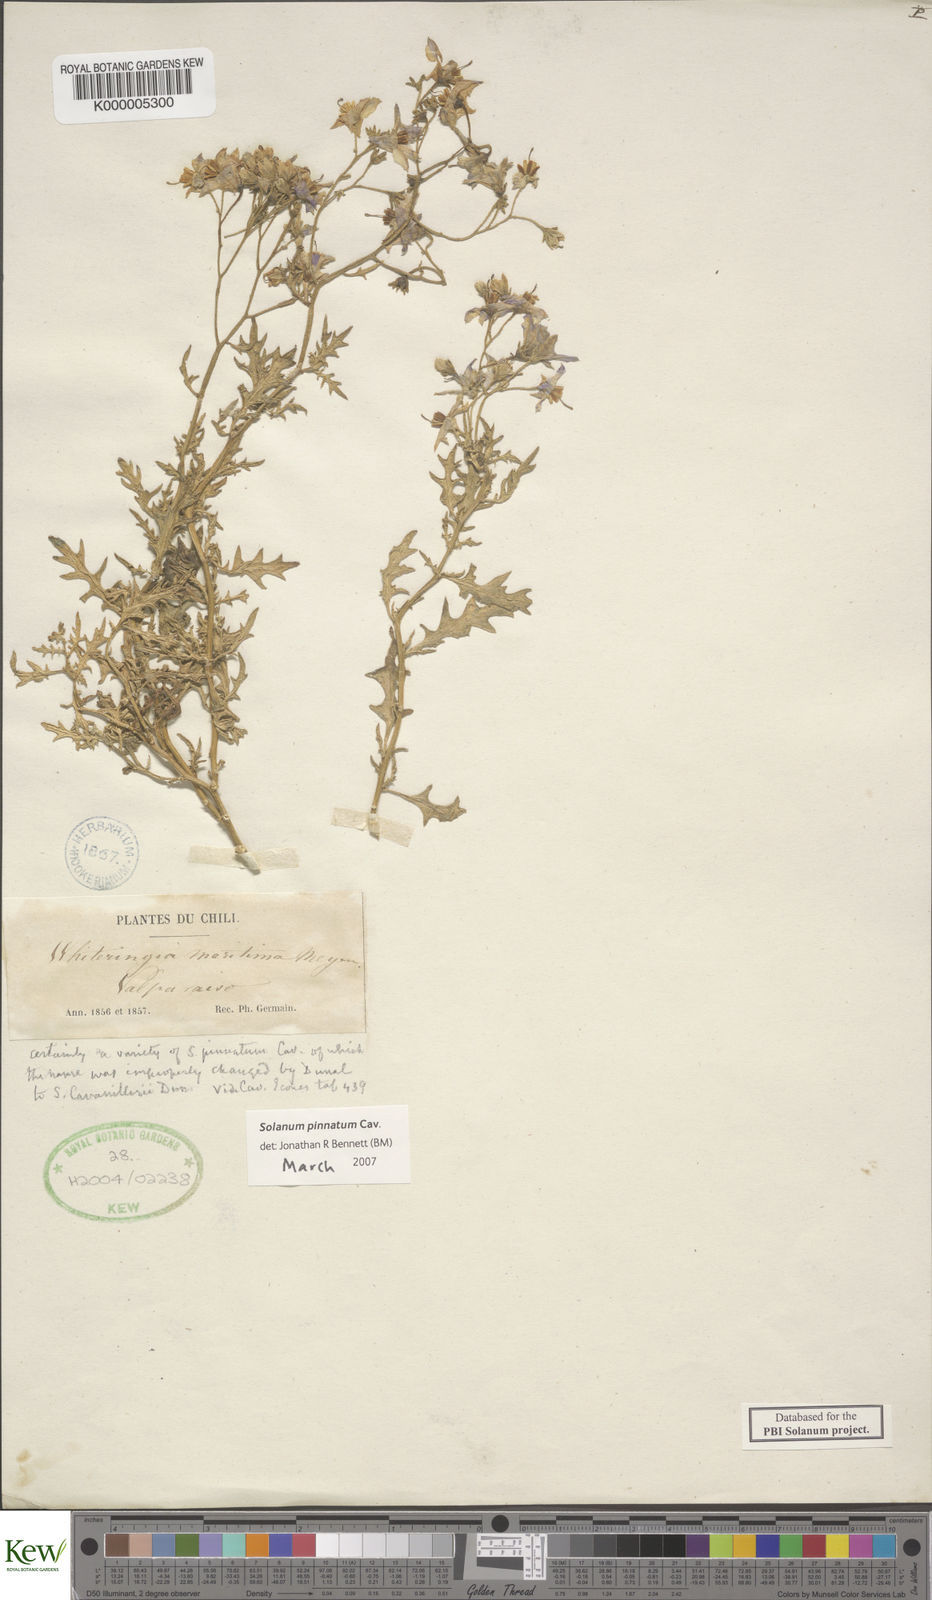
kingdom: Plantae
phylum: Tracheophyta
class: Magnoliopsida
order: Solanales
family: Solanaceae
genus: Solanum
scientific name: Solanum pinnatum
